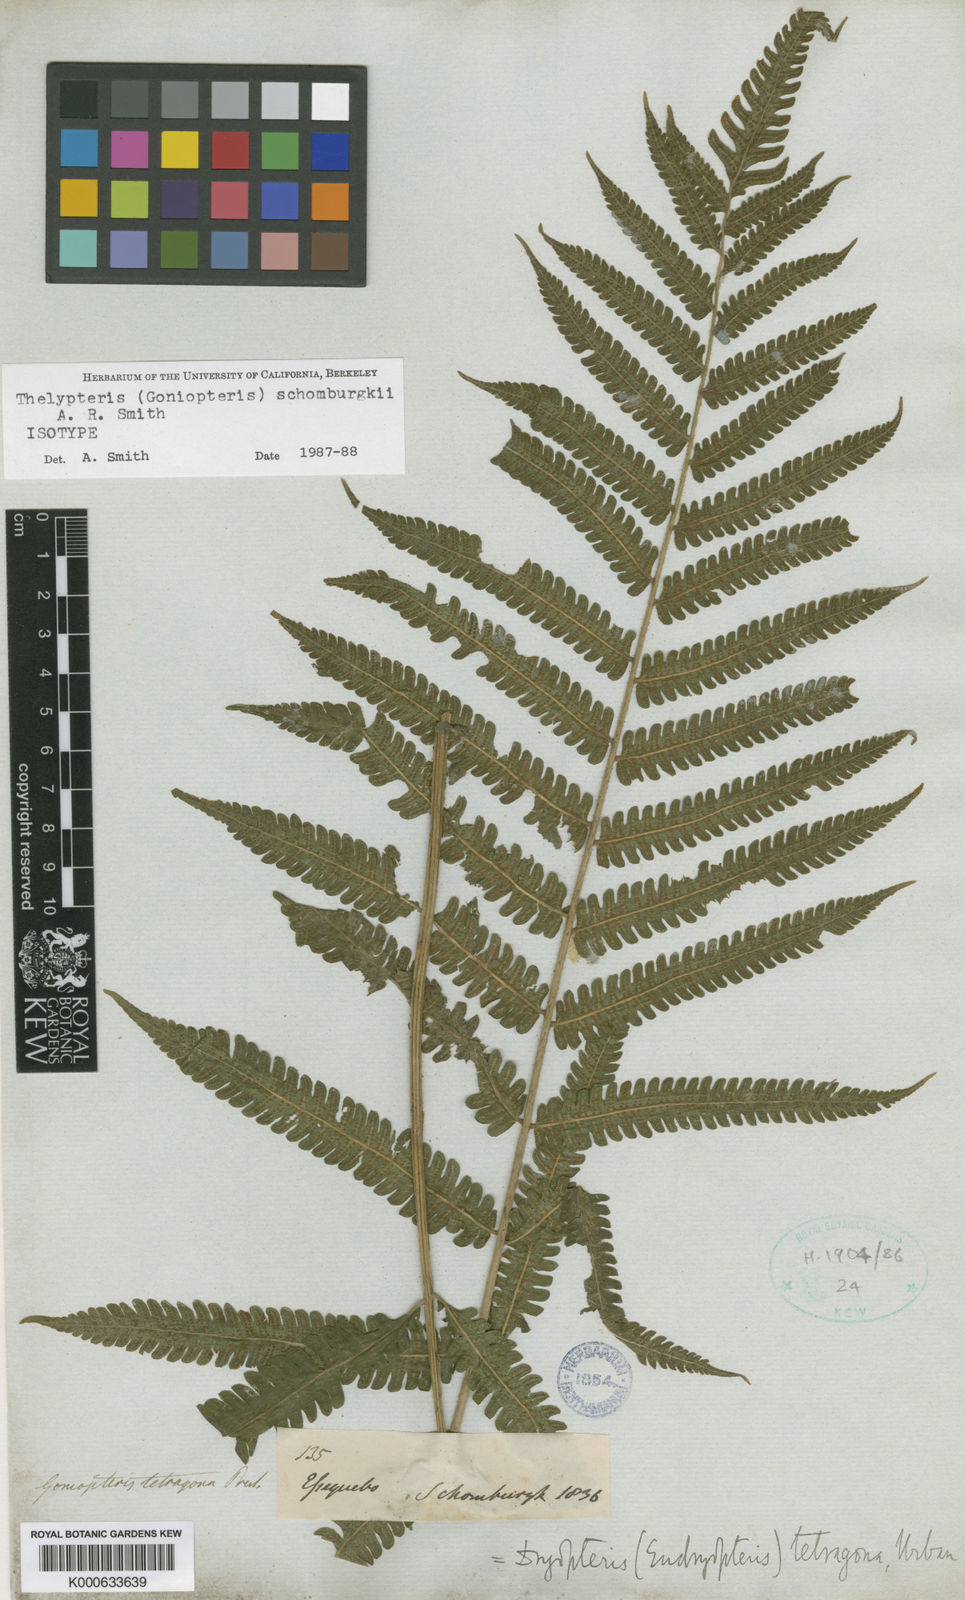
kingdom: Plantae
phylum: Tracheophyta
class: Polypodiopsida
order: Polypodiales
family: Thelypteridaceae
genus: Goniopteris
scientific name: Goniopteris
